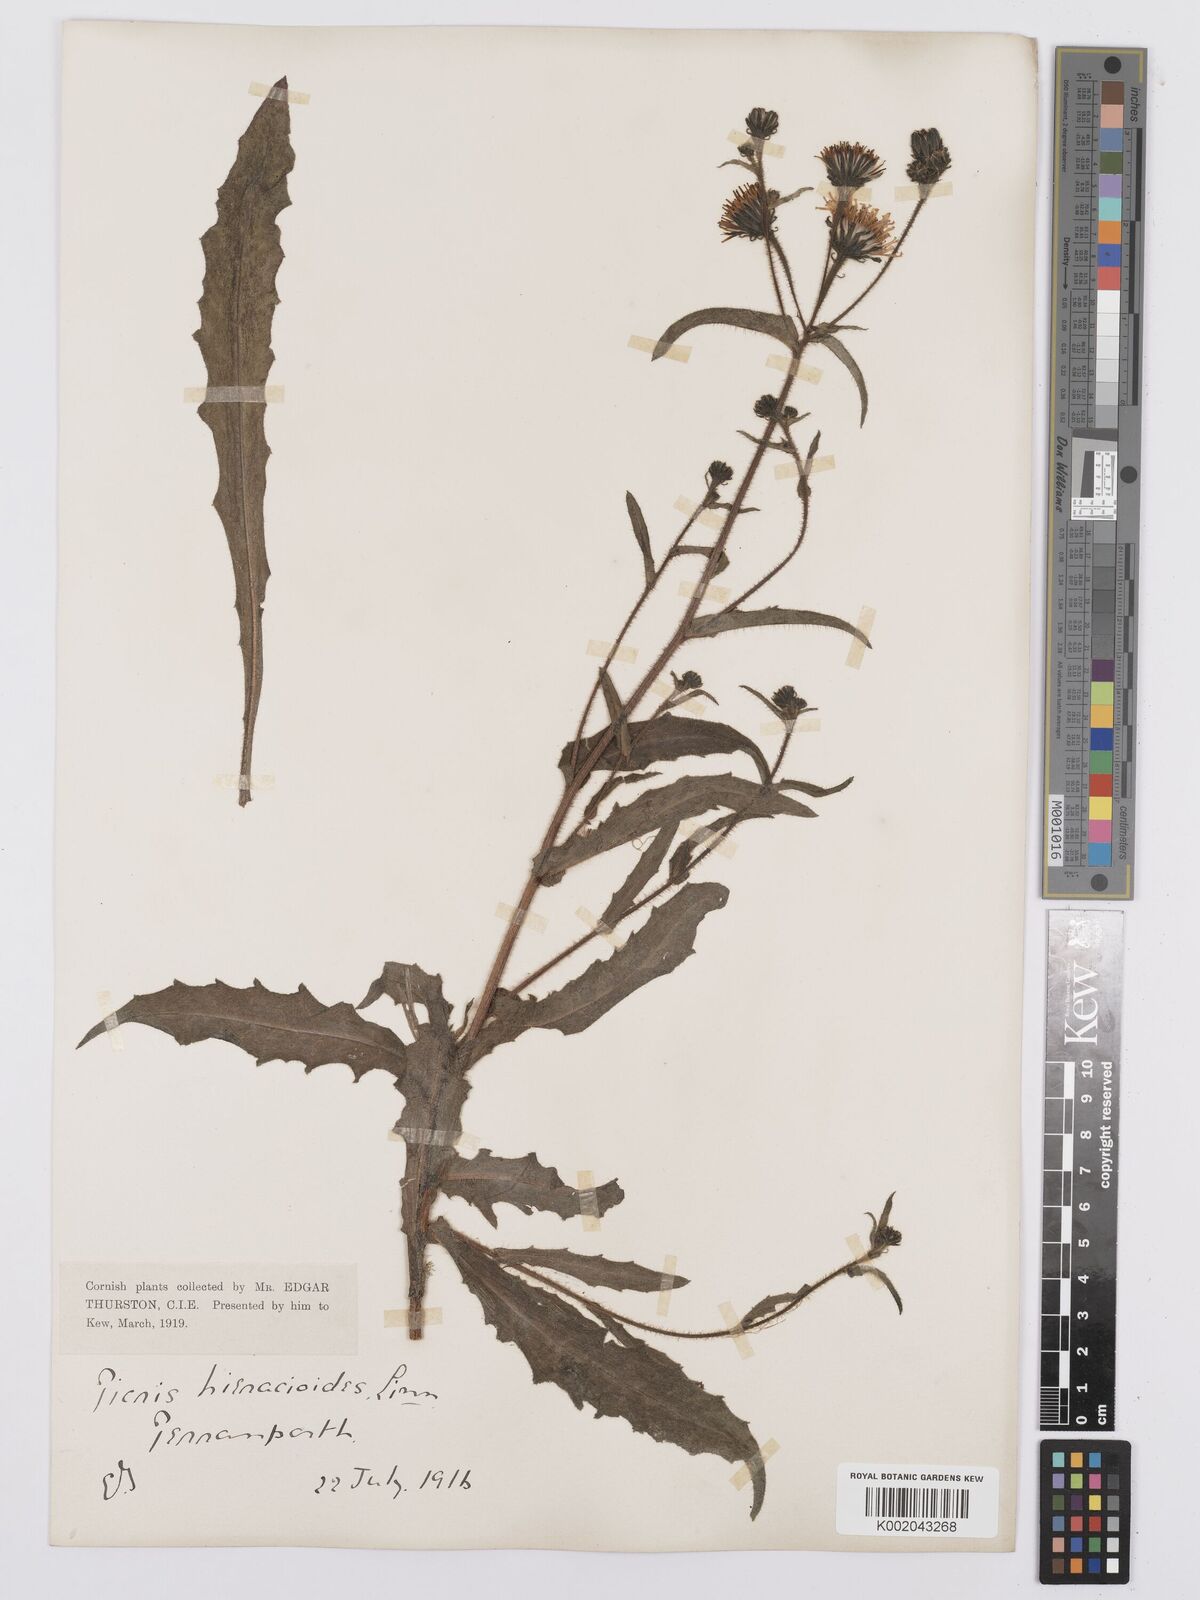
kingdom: Plantae
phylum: Tracheophyta
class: Magnoliopsida
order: Asterales
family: Asteraceae
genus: Picris
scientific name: Picris hieracioides
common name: Hawkweed oxtongue
